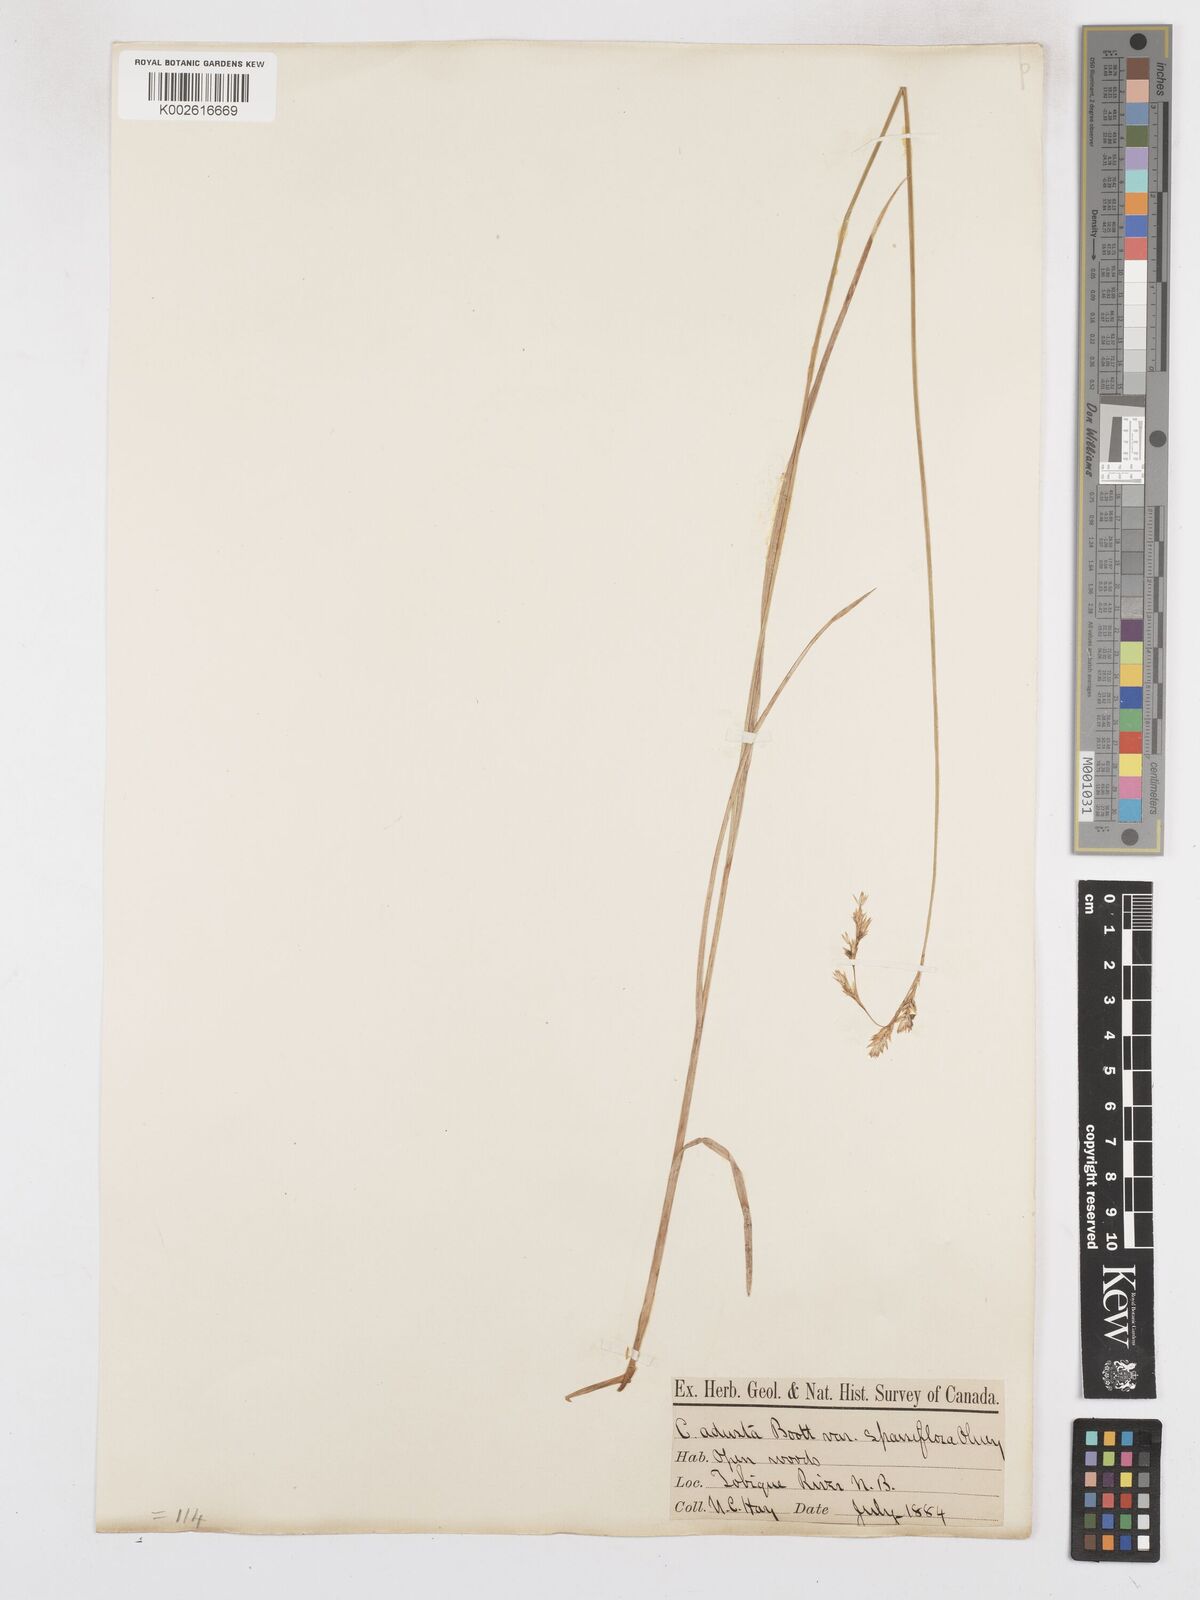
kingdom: Plantae
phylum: Tracheophyta
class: Liliopsida
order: Poales
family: Cyperaceae
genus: Carex
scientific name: Carex foenea
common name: Bronze sedge
